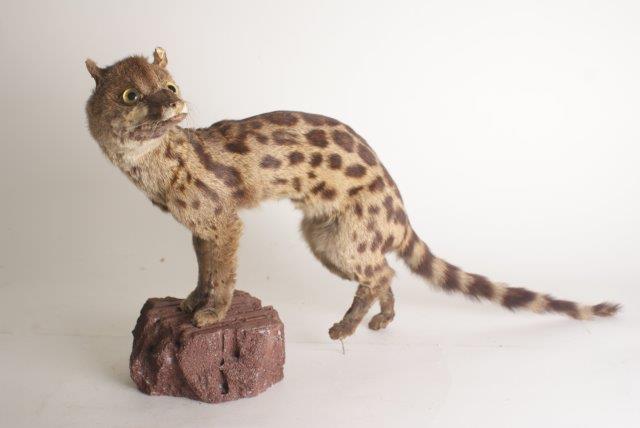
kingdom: Animalia
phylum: Chordata
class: Mammalia
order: Carnivora
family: Viverridae
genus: Genetta
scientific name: Genetta genetta
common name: Common Genet
